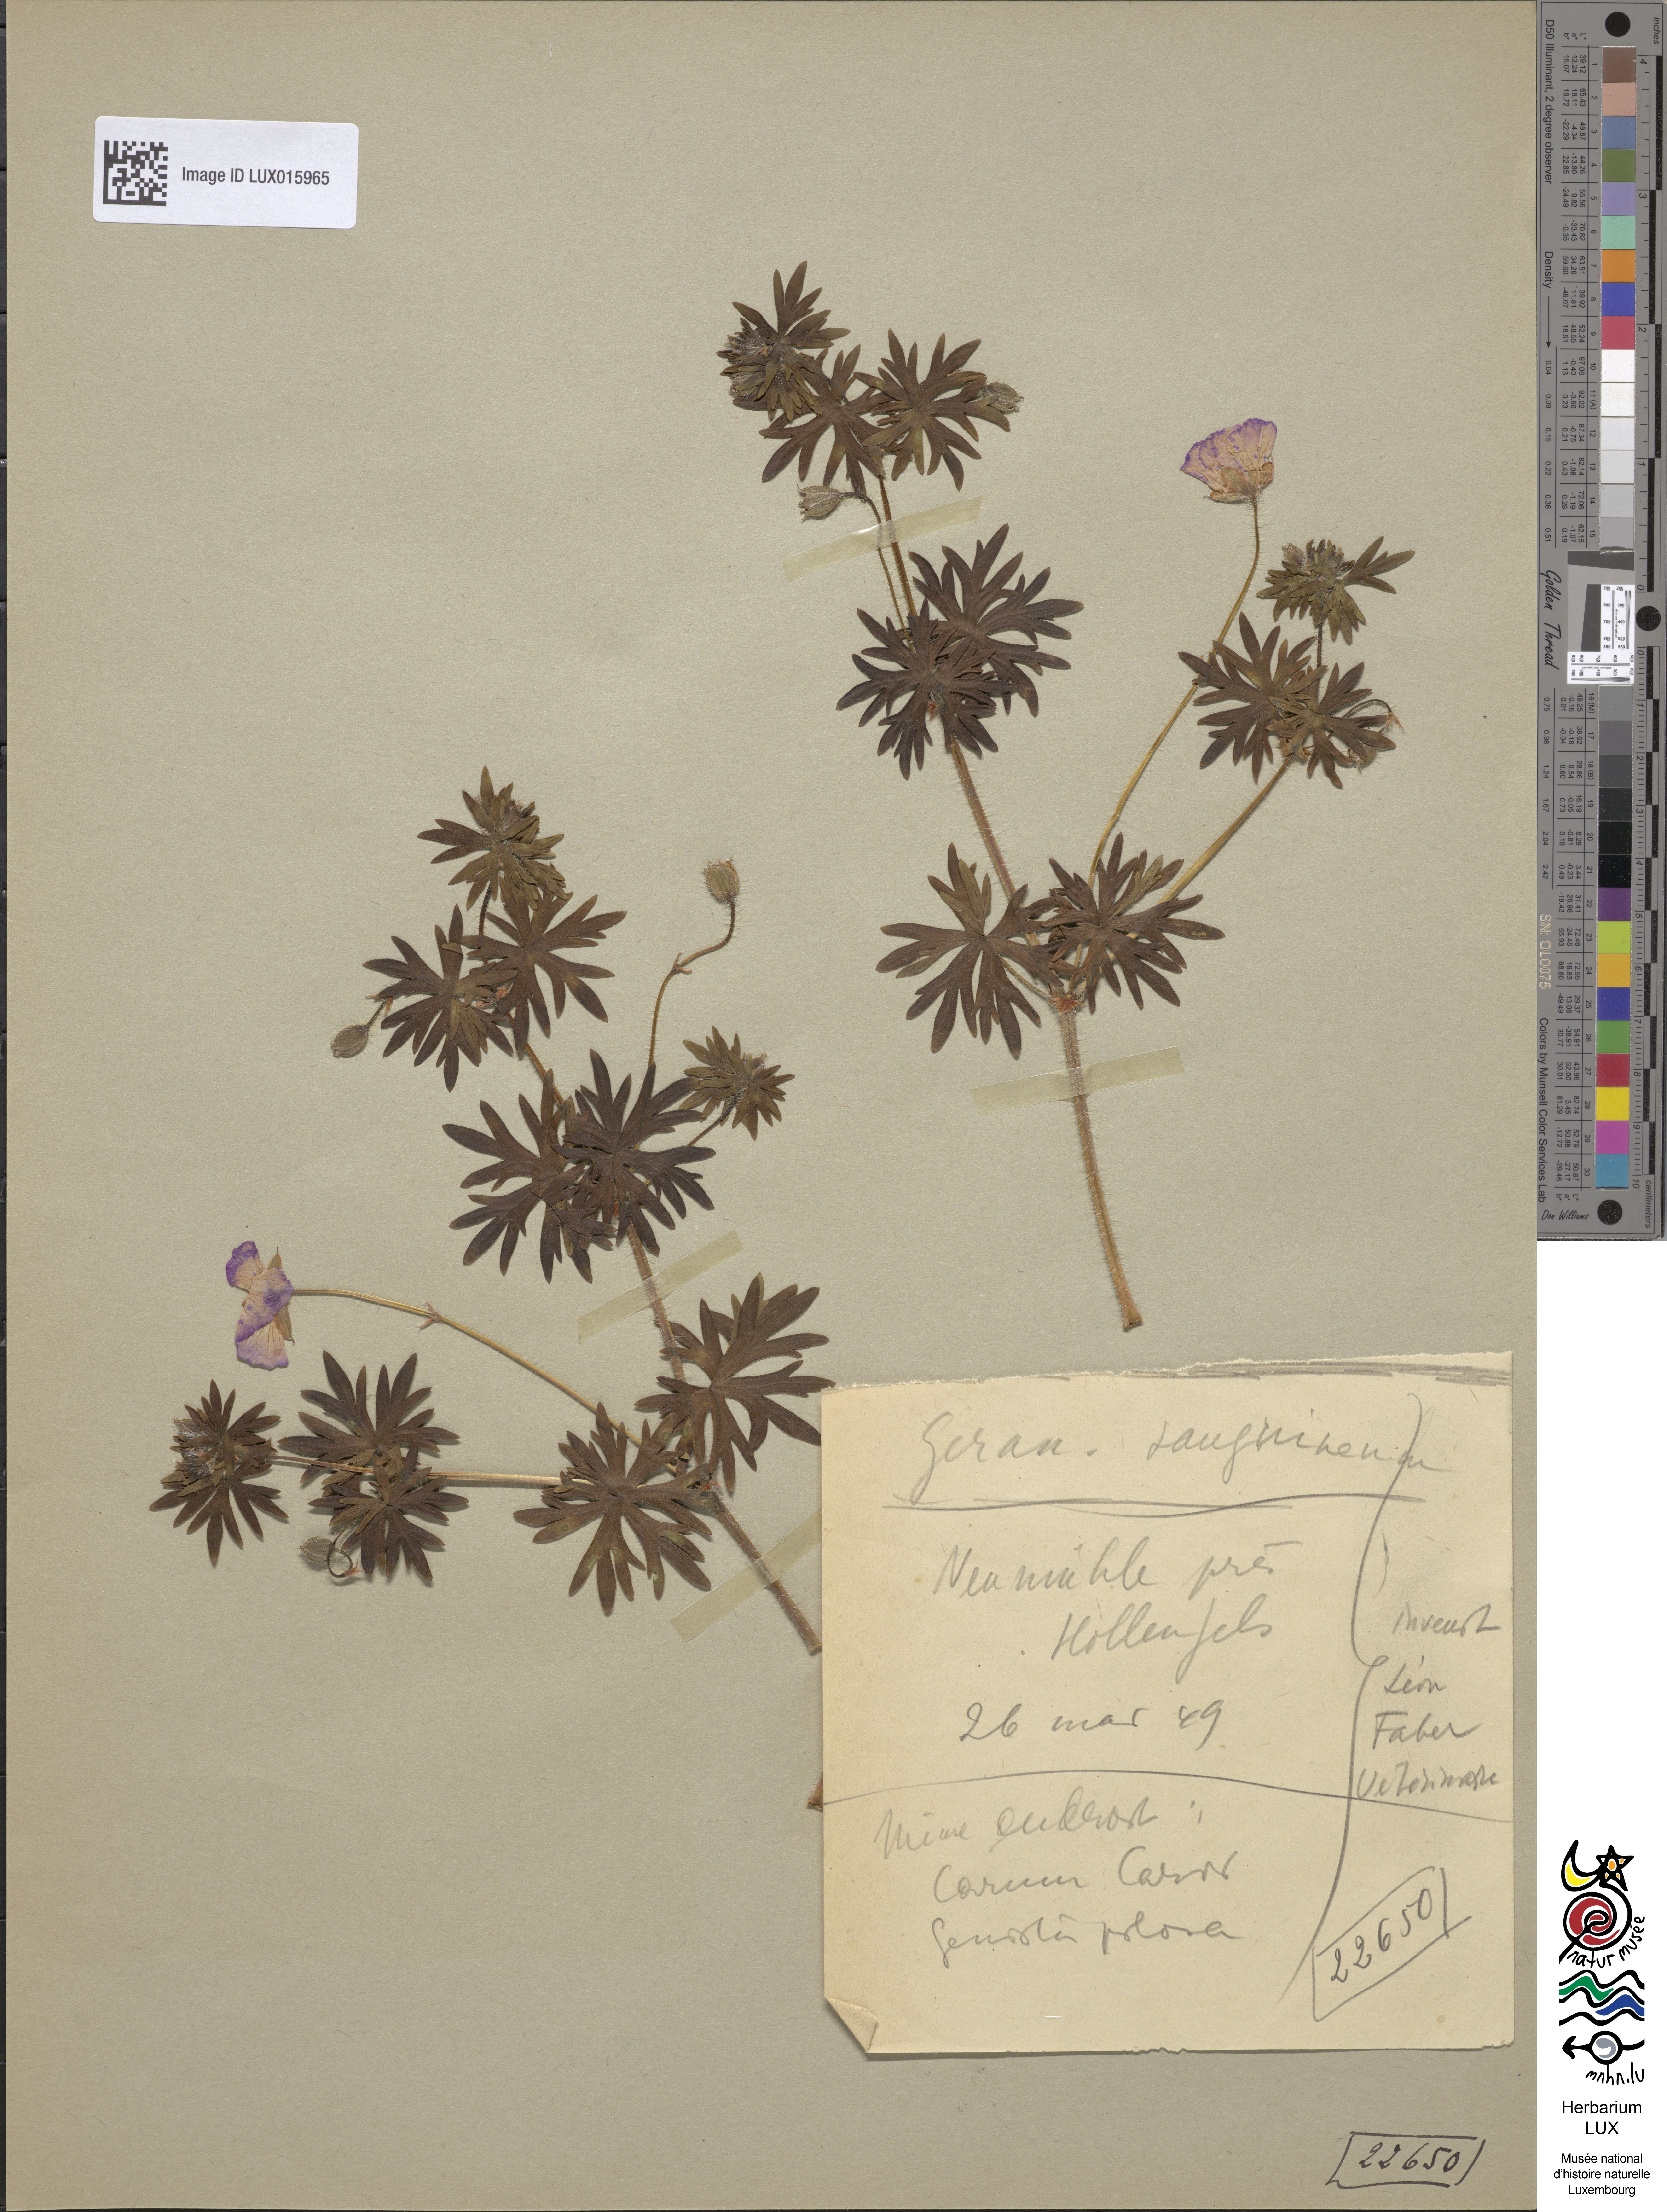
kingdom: Plantae
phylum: Tracheophyta
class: Magnoliopsida
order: Geraniales
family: Geraniaceae
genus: Geranium
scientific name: Geranium sanguineum
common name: Bloody crane's-bill
